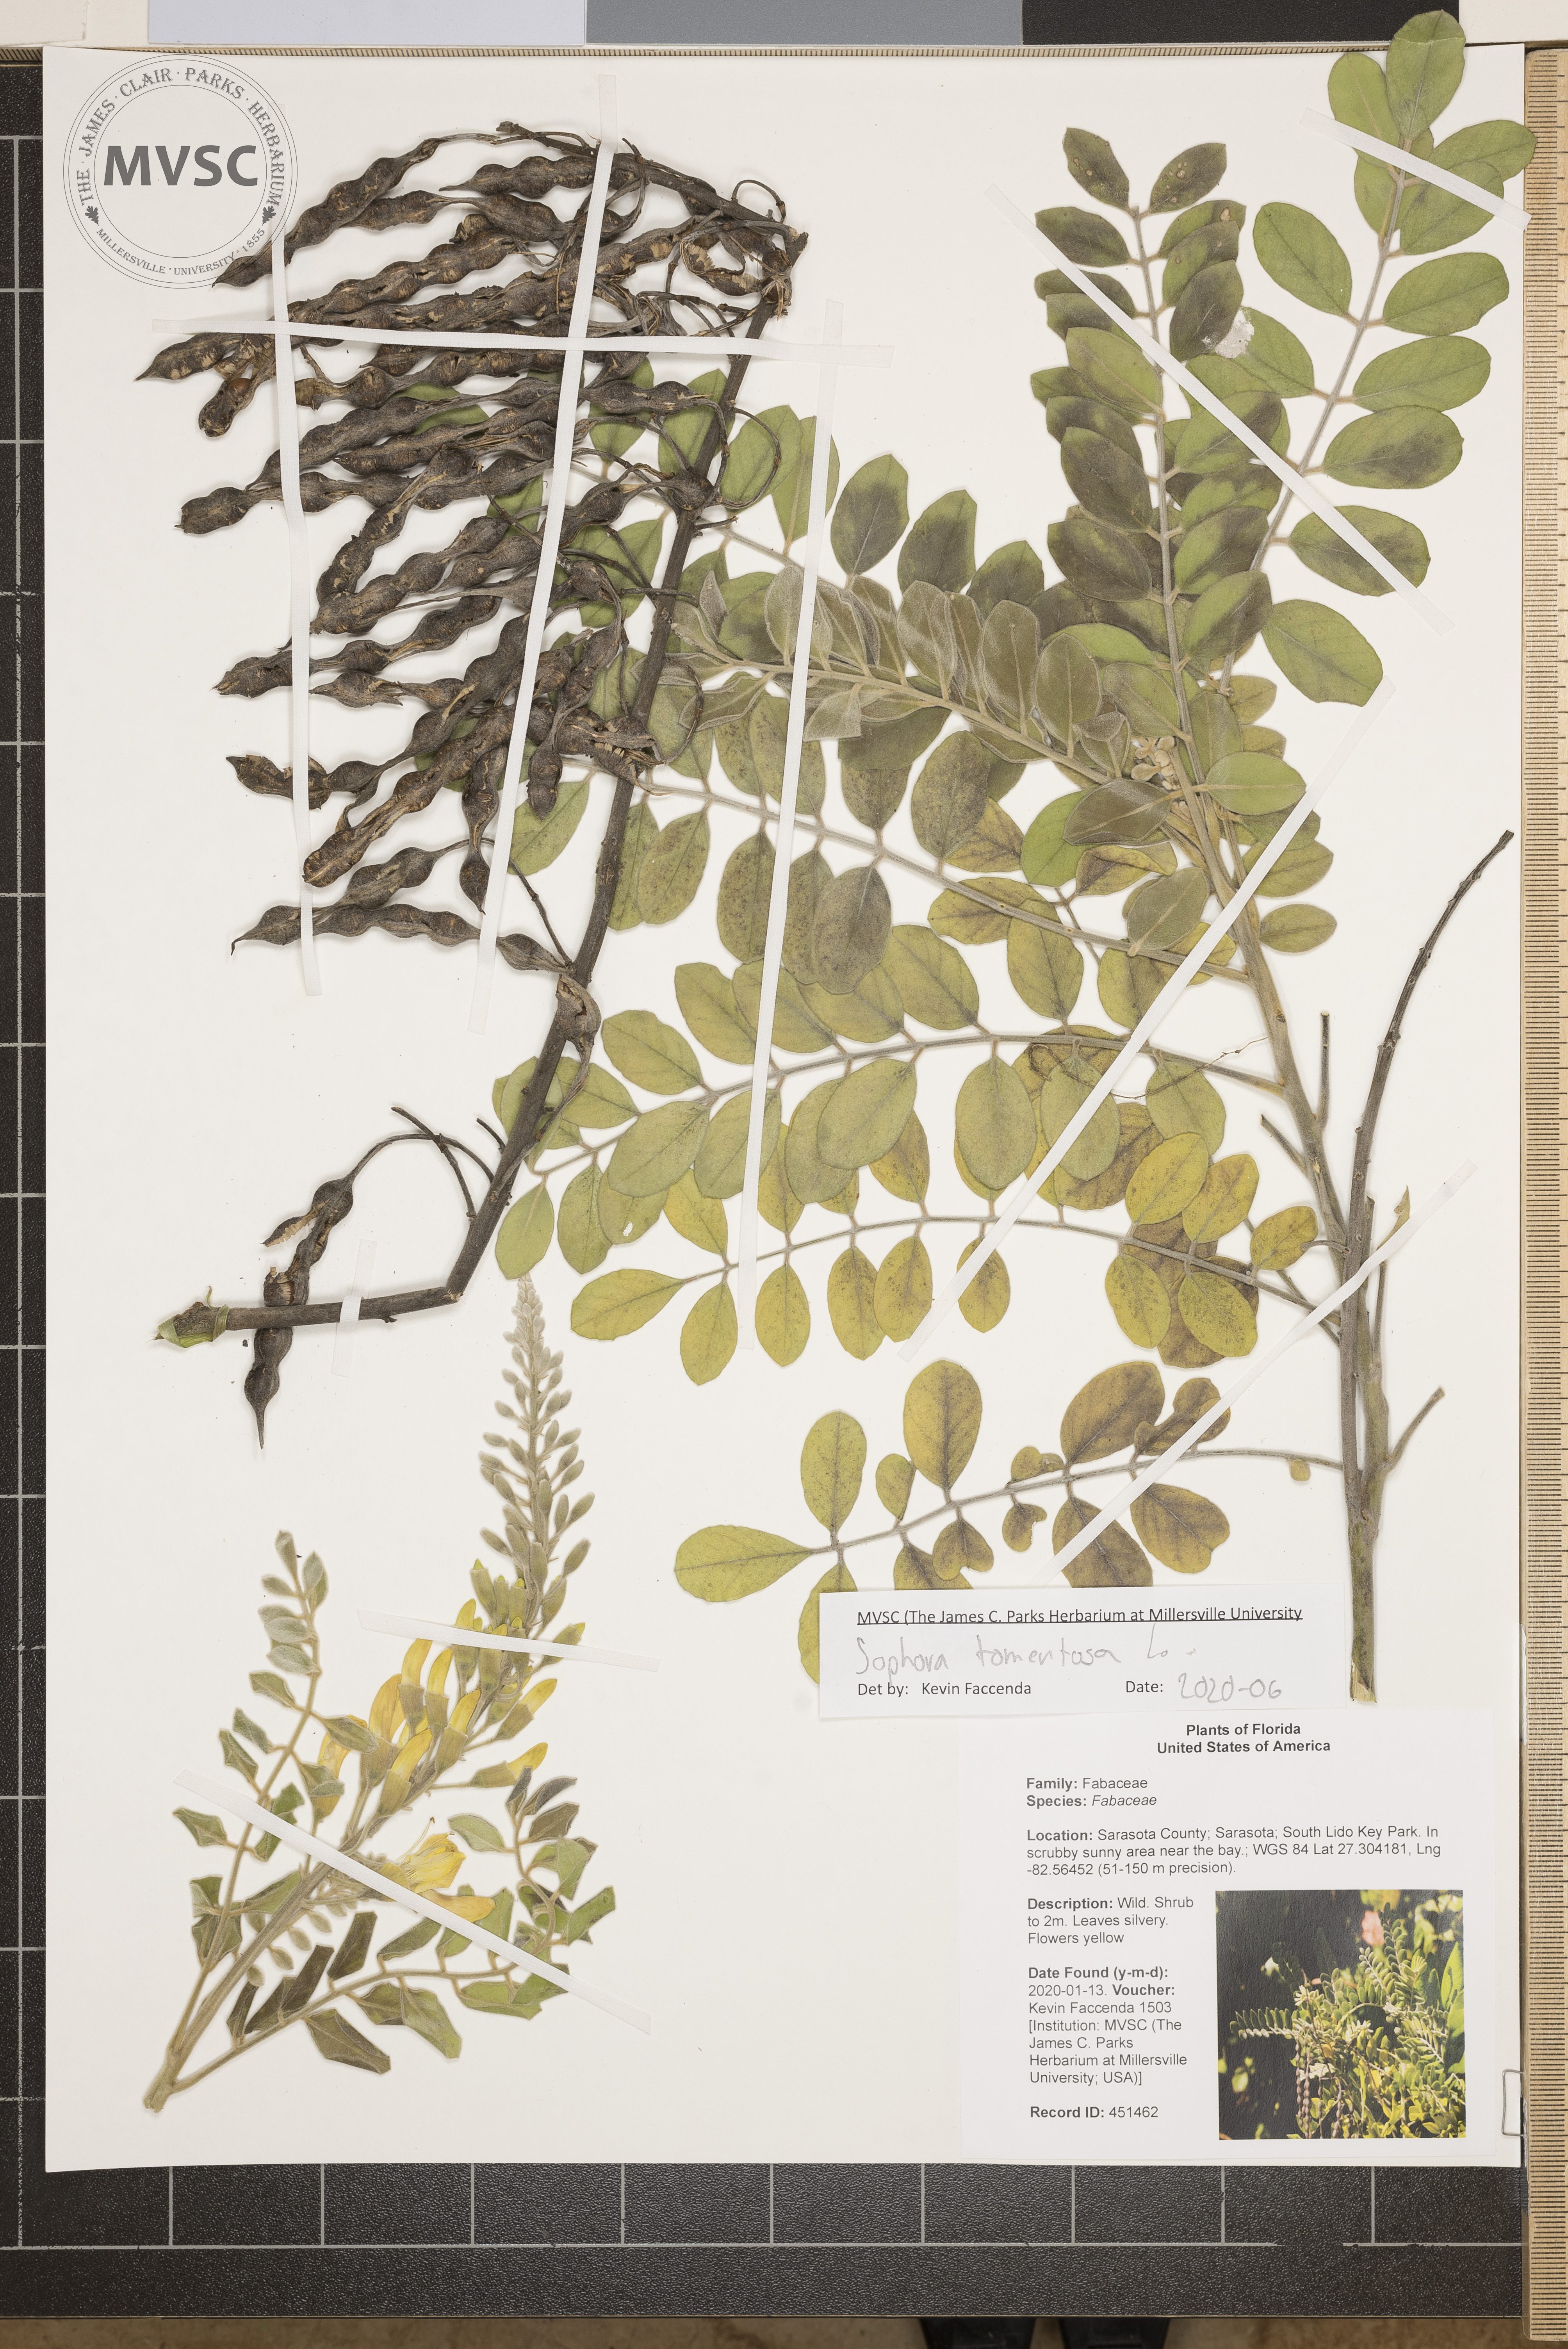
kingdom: Plantae
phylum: Tracheophyta
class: Magnoliopsida
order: Fabales
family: Fabaceae
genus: Sophora
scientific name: Sophora tomentosa
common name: Yellow necklacepod
